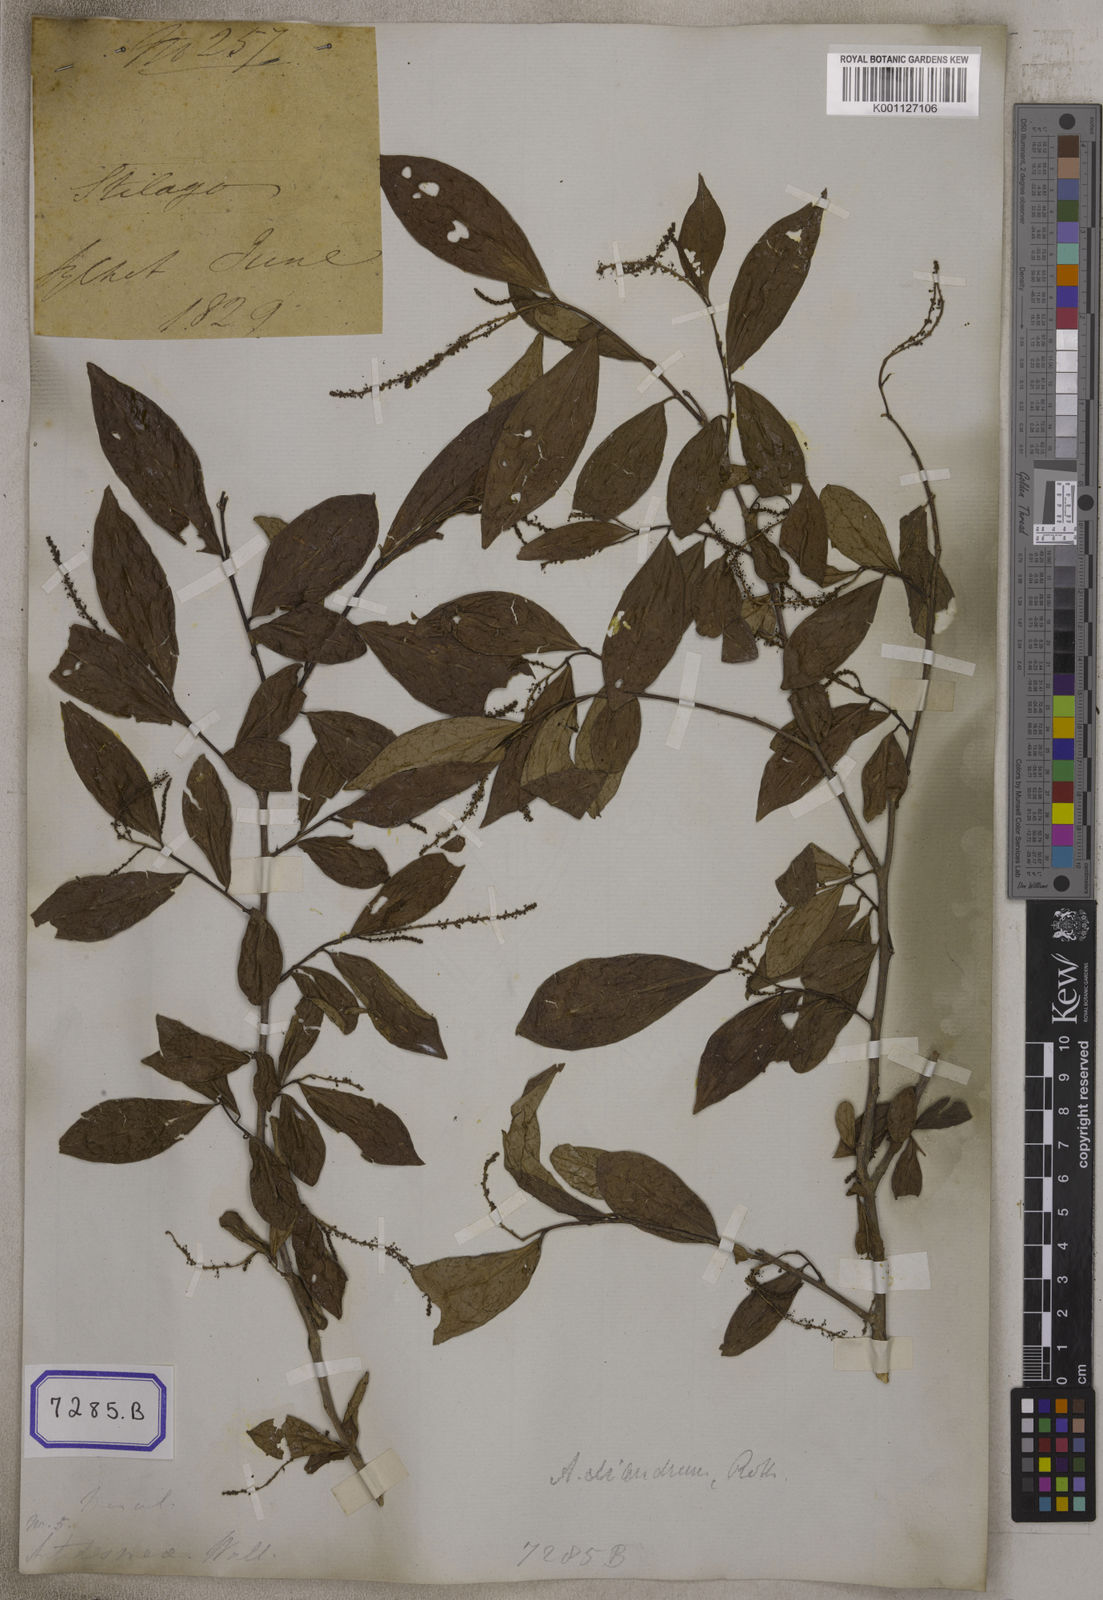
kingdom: Plantae
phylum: Tracheophyta
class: Magnoliopsida
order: Malpighiales
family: Phyllanthaceae
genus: Antidesma
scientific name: Antidesma
